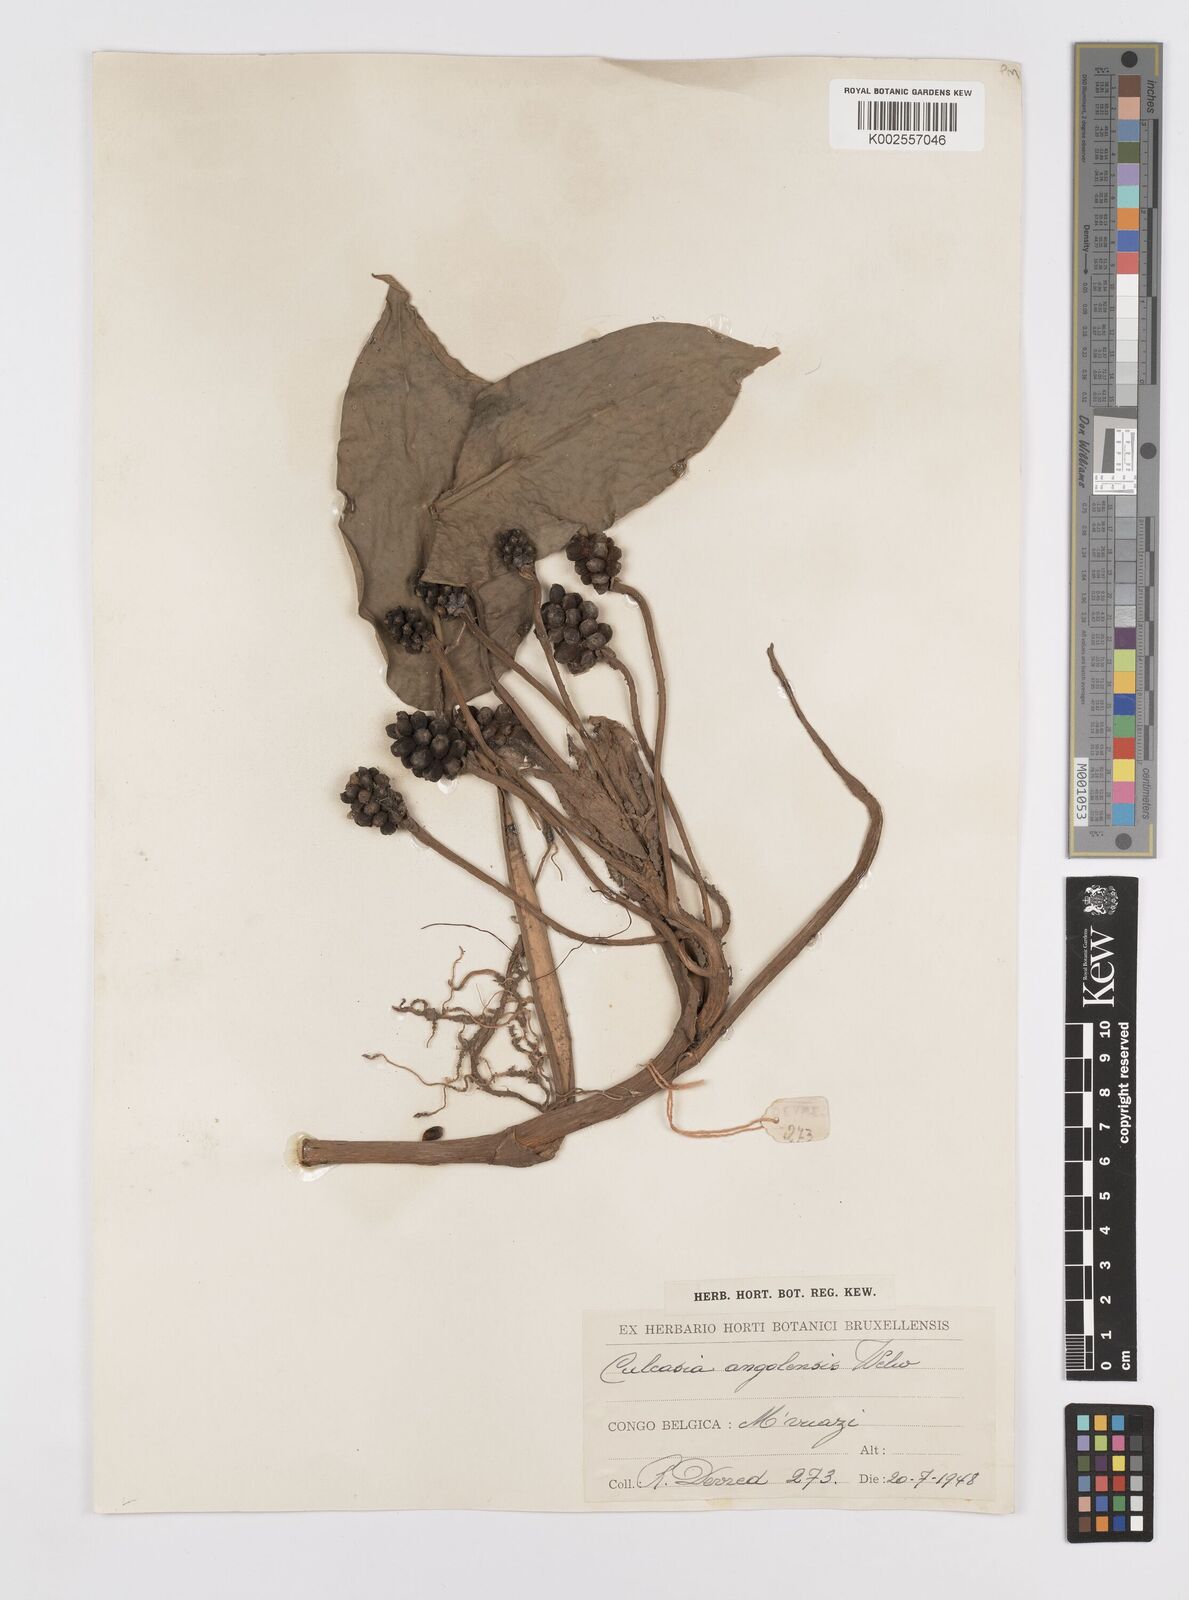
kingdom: Plantae
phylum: Tracheophyta
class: Liliopsida
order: Alismatales
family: Araceae
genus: Culcasia
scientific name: Culcasia angolensis
